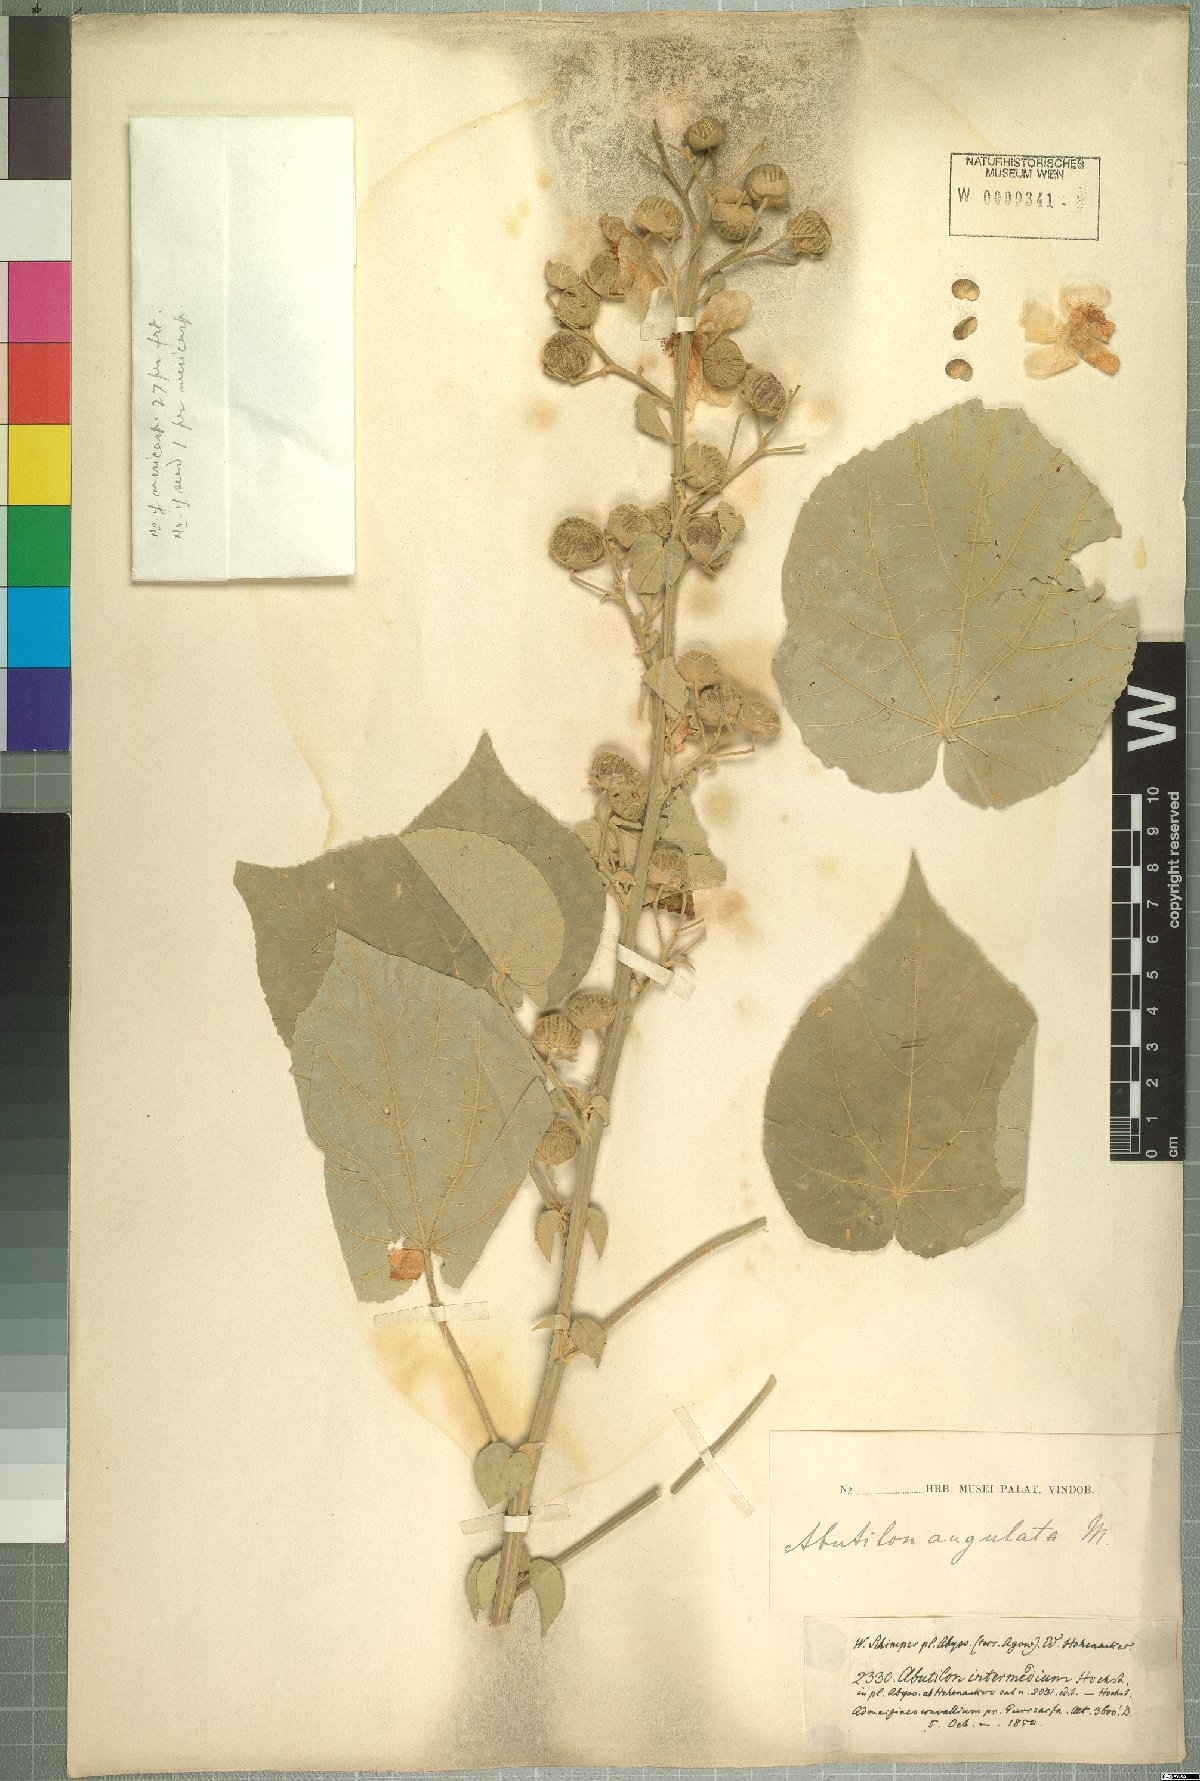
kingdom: Plantae
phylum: Tracheophyta
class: Magnoliopsida
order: Malvales
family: Malvaceae
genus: Abutilon
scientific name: Abutilon angulatum
